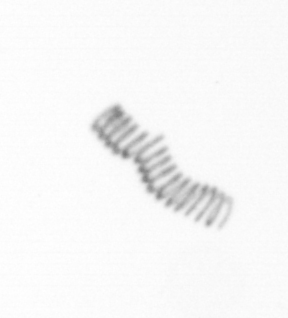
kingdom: Chromista
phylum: Ochrophyta
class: Bacillariophyceae
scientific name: Bacillariophyceae
